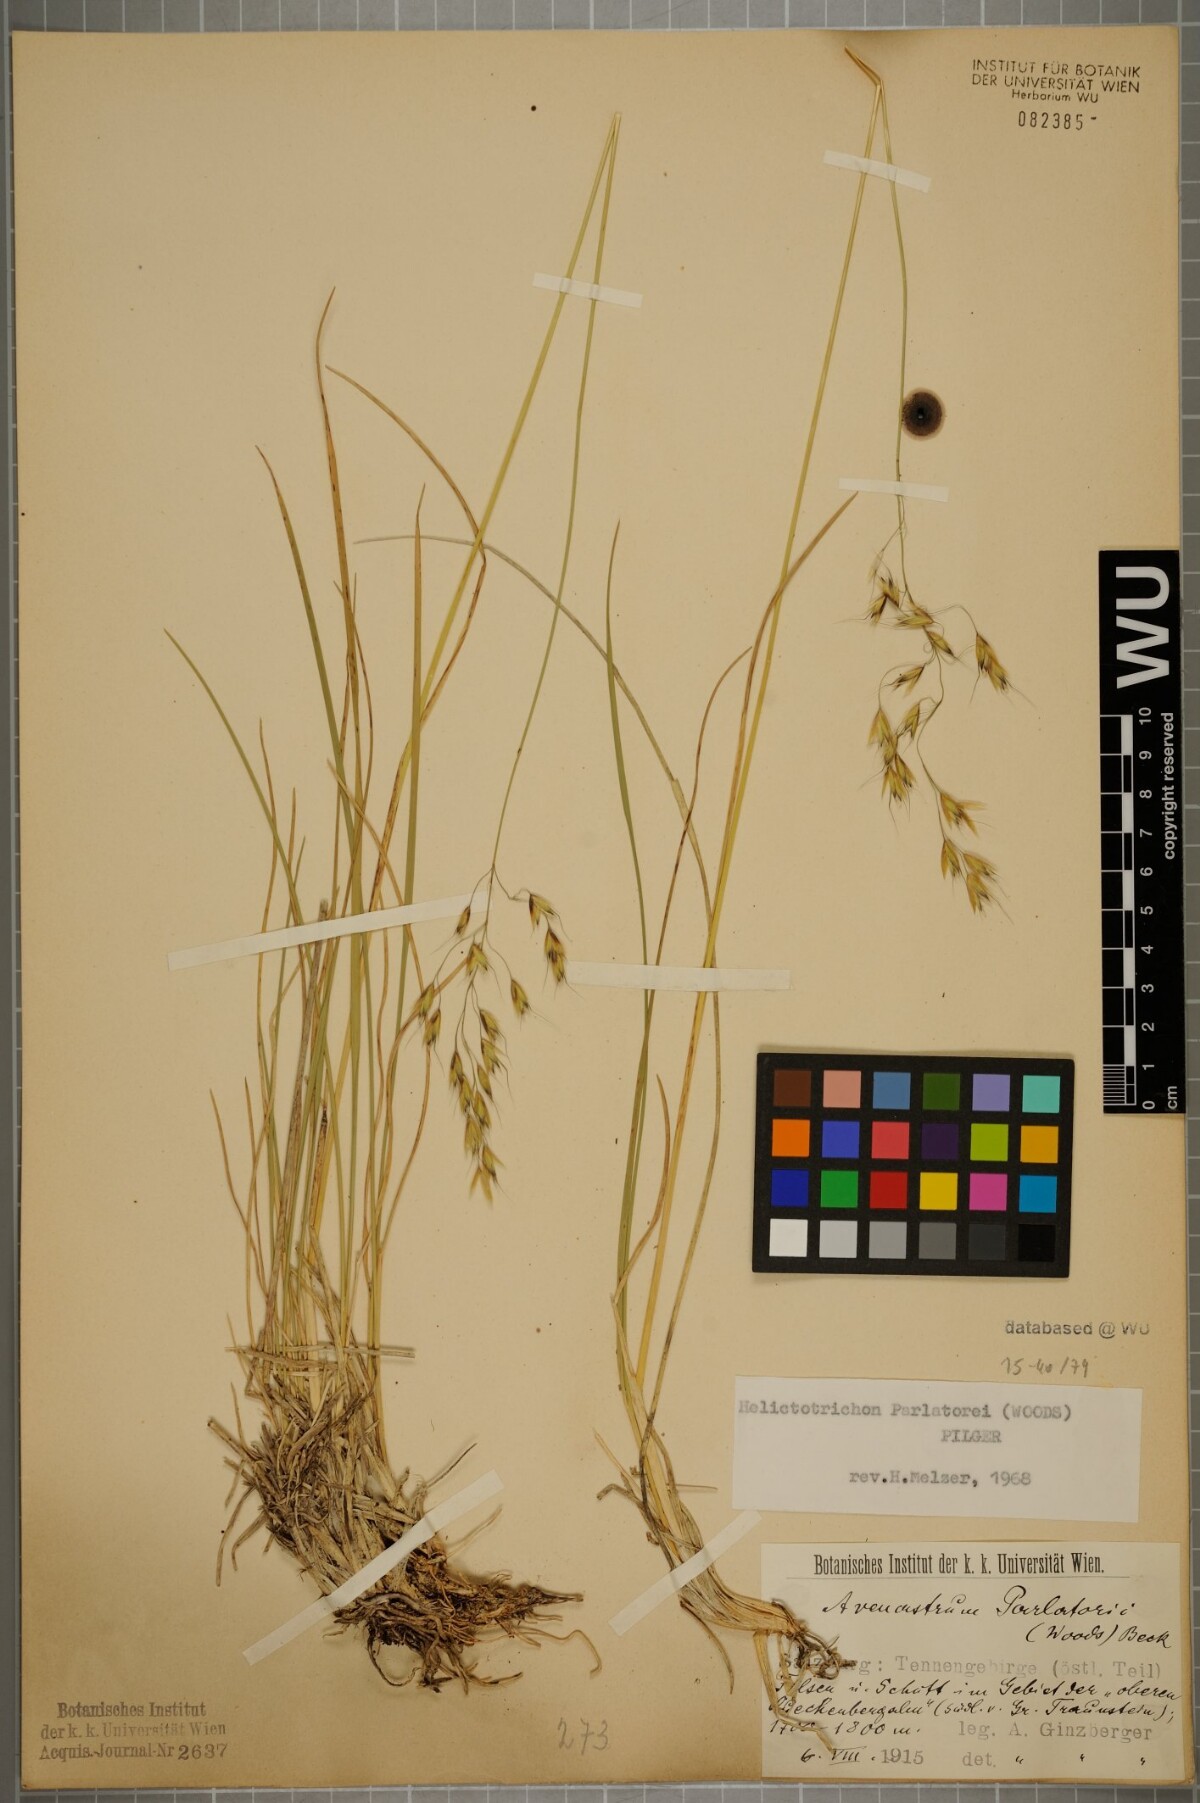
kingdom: Plantae
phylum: Tracheophyta
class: Liliopsida
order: Poales
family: Poaceae
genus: Helictotrichon
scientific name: Helictotrichon parlatorei
